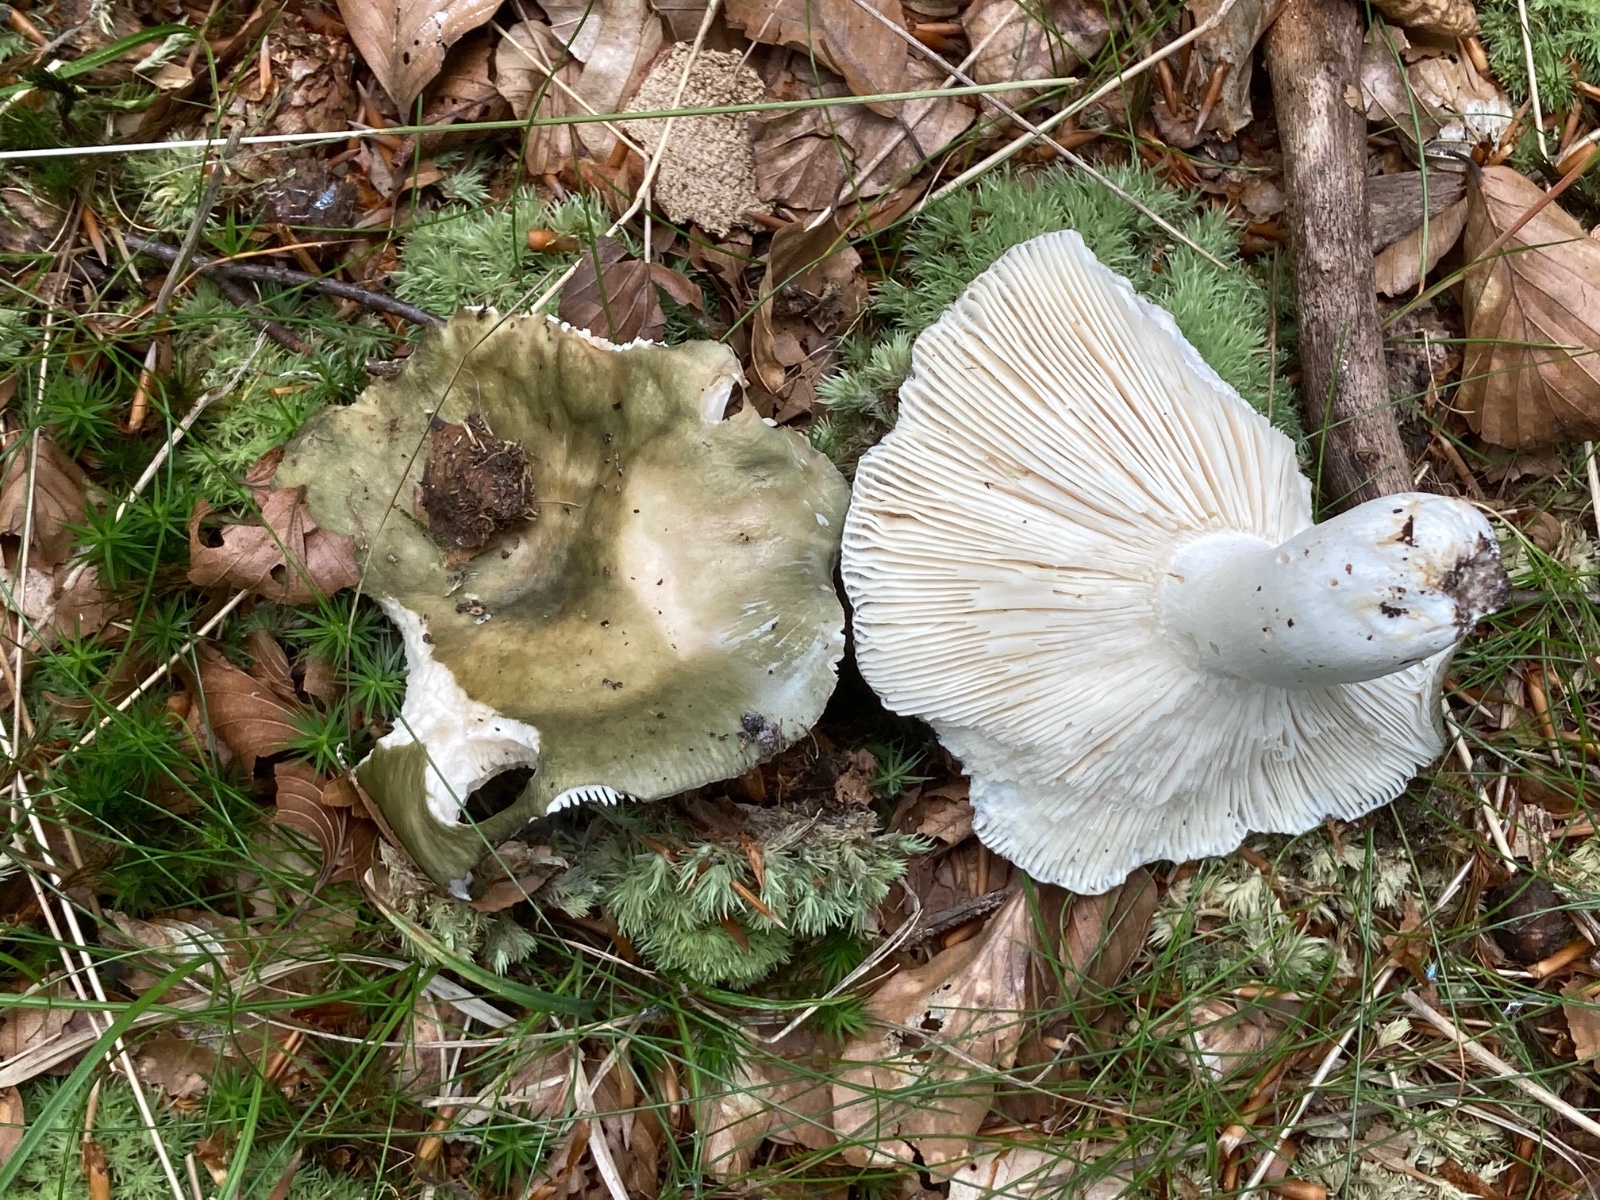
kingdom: Fungi
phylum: Basidiomycota
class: Agaricomycetes
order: Russulales
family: Russulaceae
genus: Russula
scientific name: Russula cyanoxantha
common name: broget skørhat
